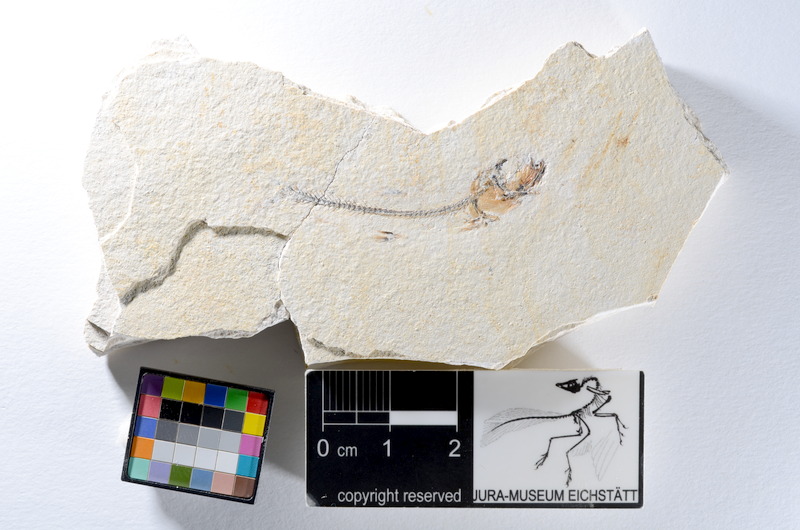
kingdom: Animalia
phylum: Chordata
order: Salmoniformes
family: Orthogonikleithridae
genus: Orthogonikleithrus
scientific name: Orthogonikleithrus hoelli
